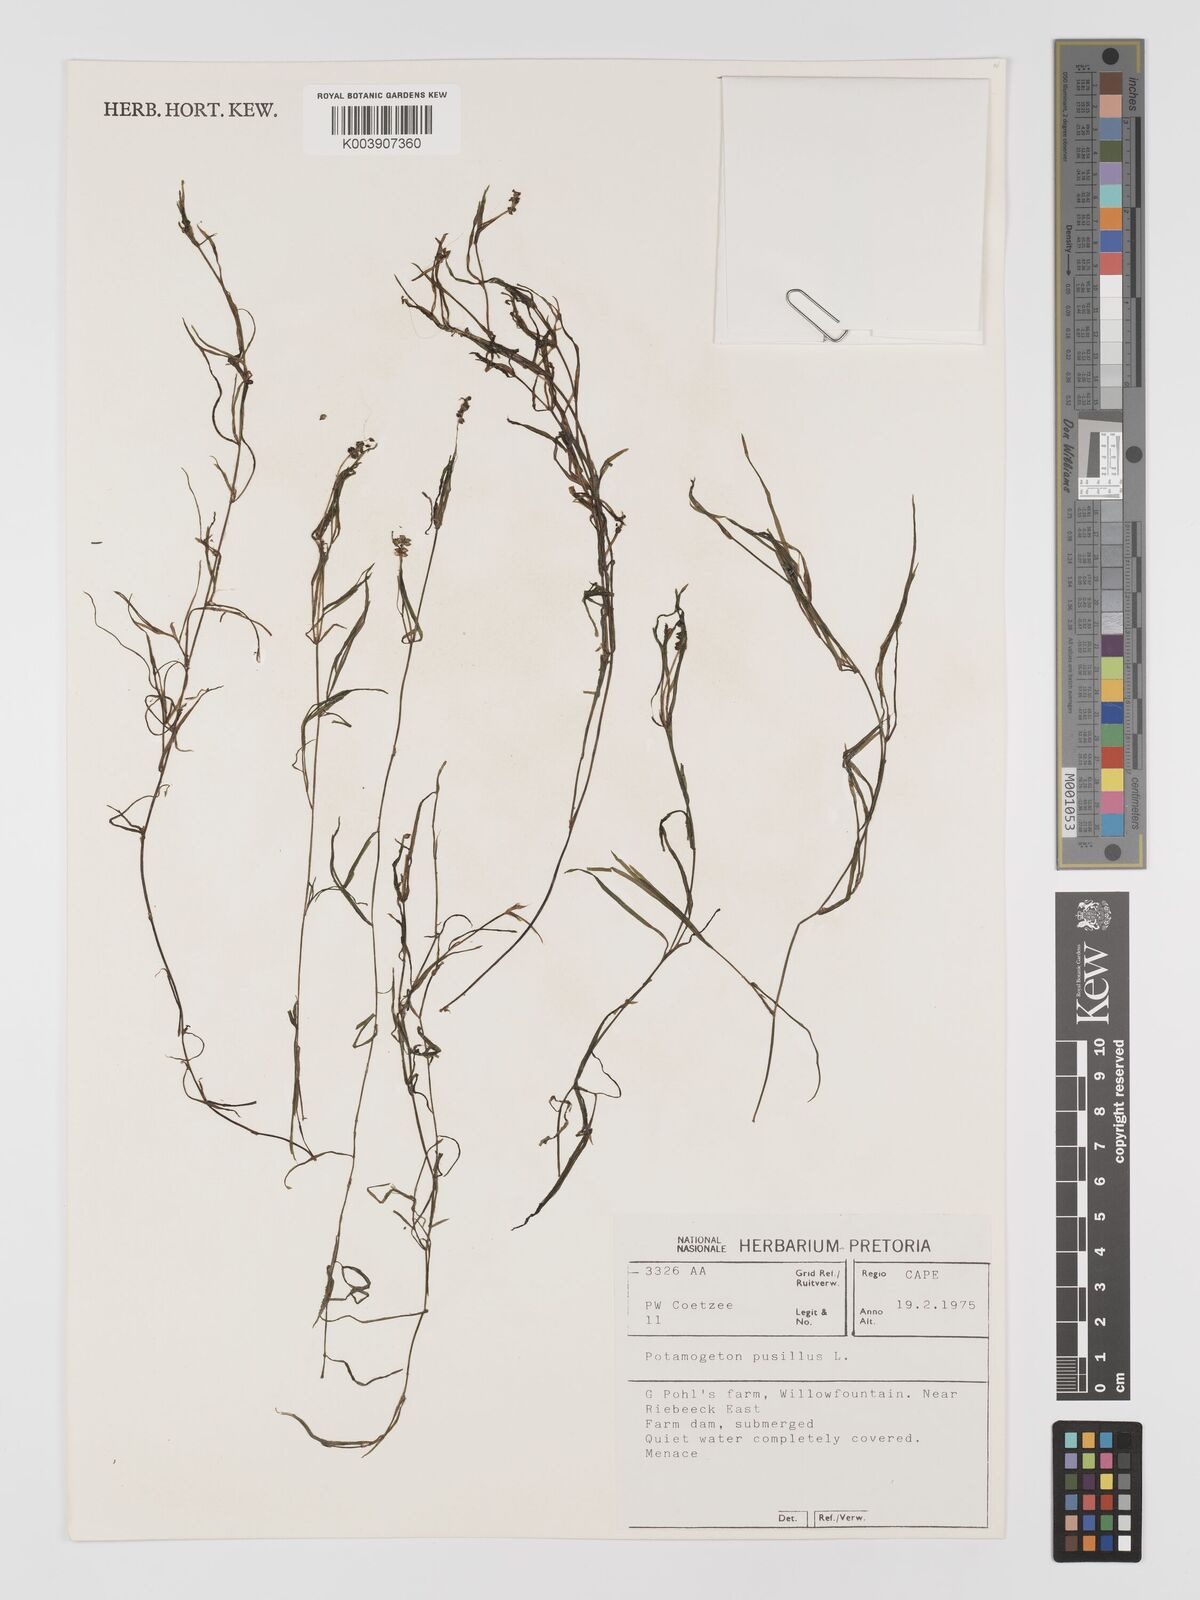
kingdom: Plantae
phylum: Tracheophyta
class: Liliopsida
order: Alismatales
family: Potamogetonaceae
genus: Potamogeton
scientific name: Potamogeton pusillus
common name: Lesser pondweed
